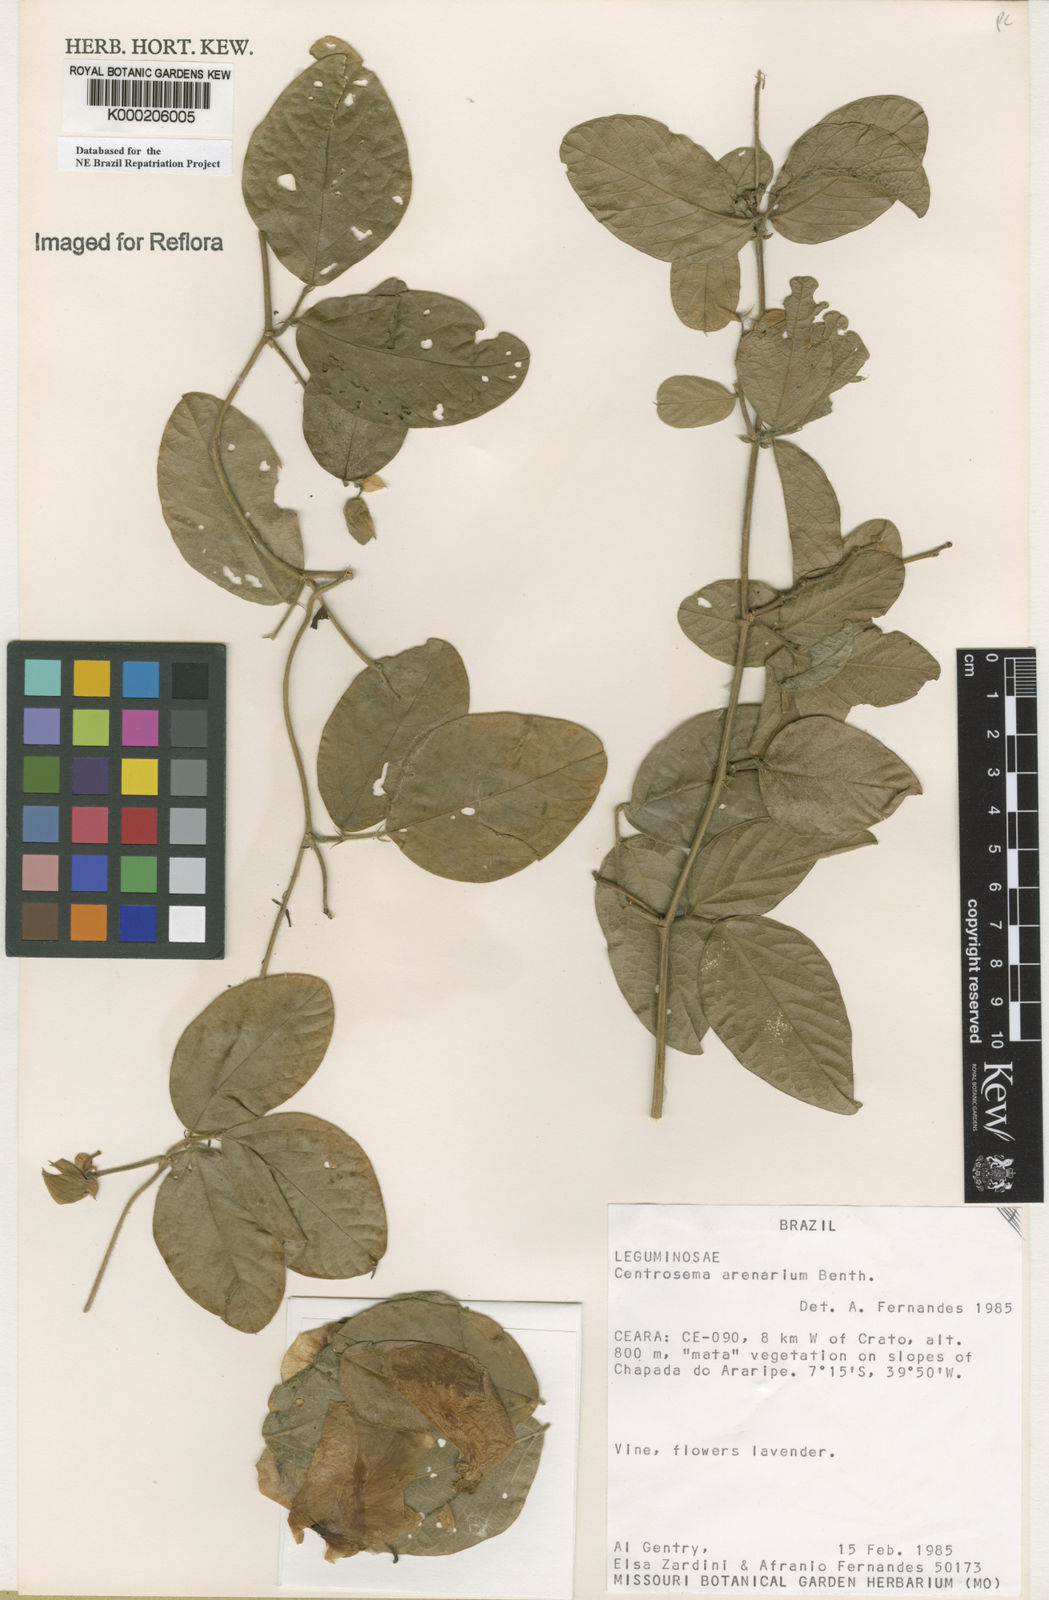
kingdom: Plantae
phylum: Tracheophyta
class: Magnoliopsida
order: Fabales
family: Fabaceae
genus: Centrosema
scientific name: Centrosema arenarium
